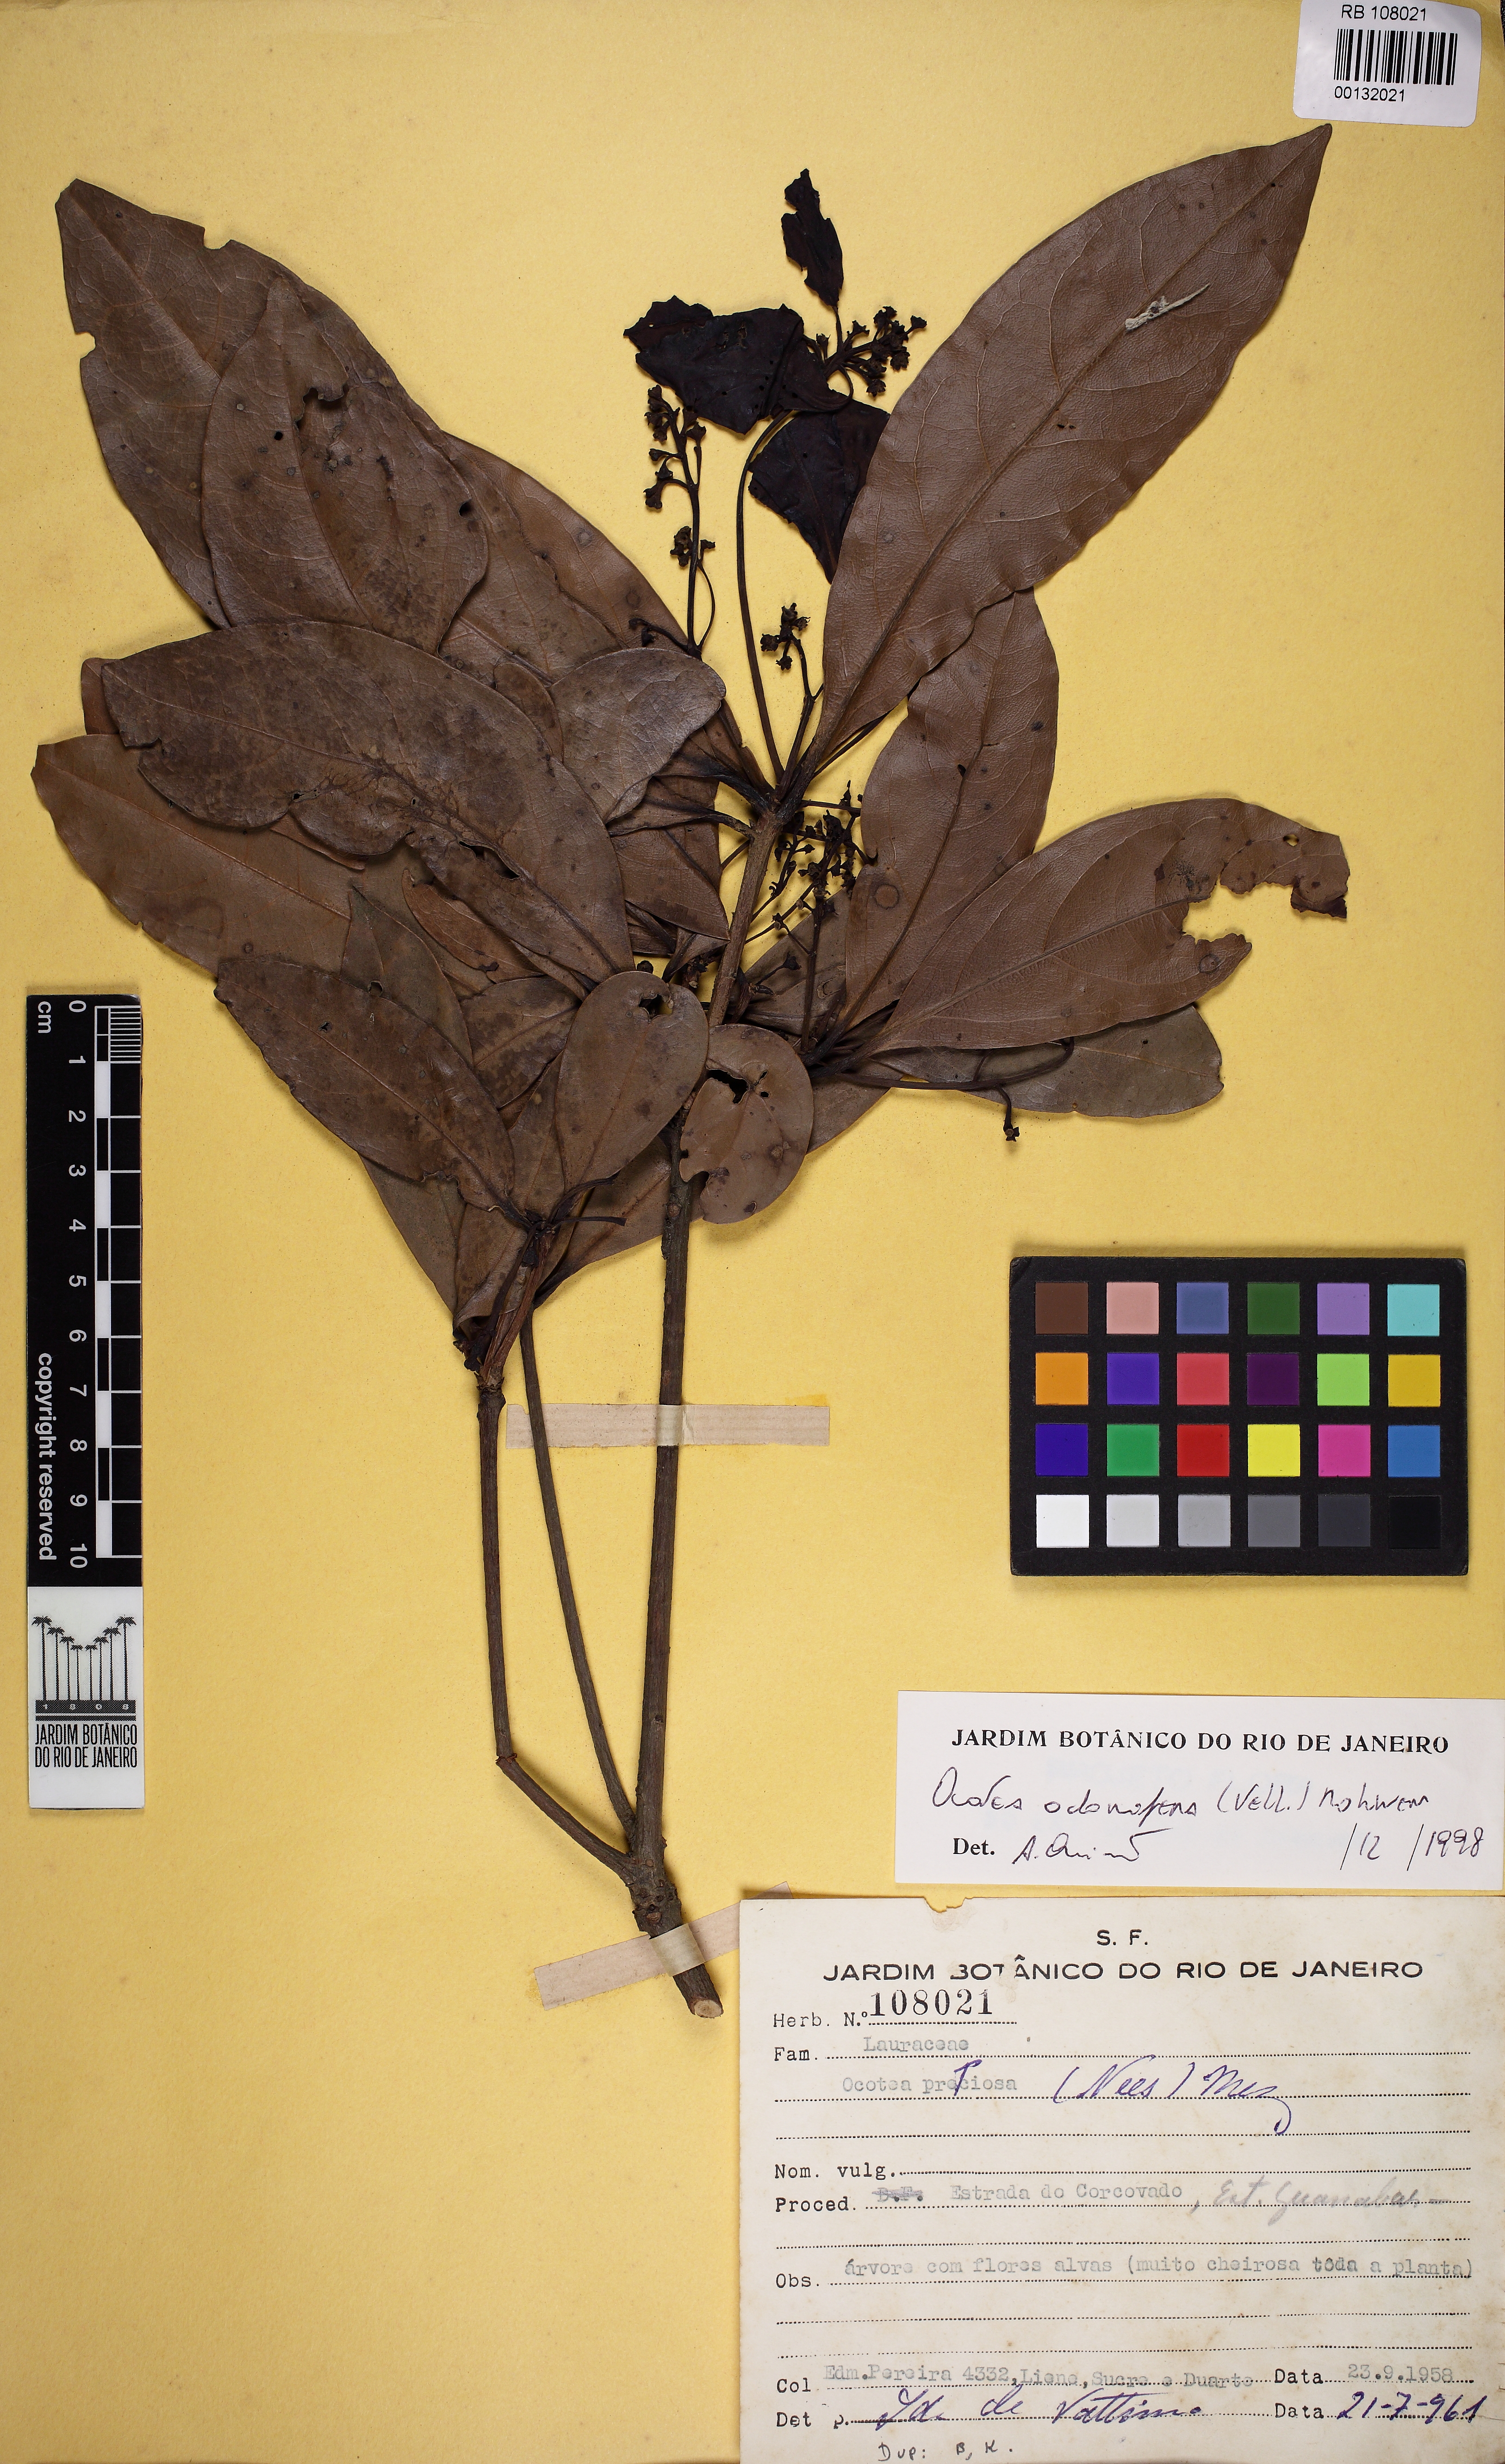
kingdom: Plantae
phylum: Tracheophyta
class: Magnoliopsida
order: Laurales
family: Lauraceae
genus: Mespilodaphne
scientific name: Mespilodaphne quixos
